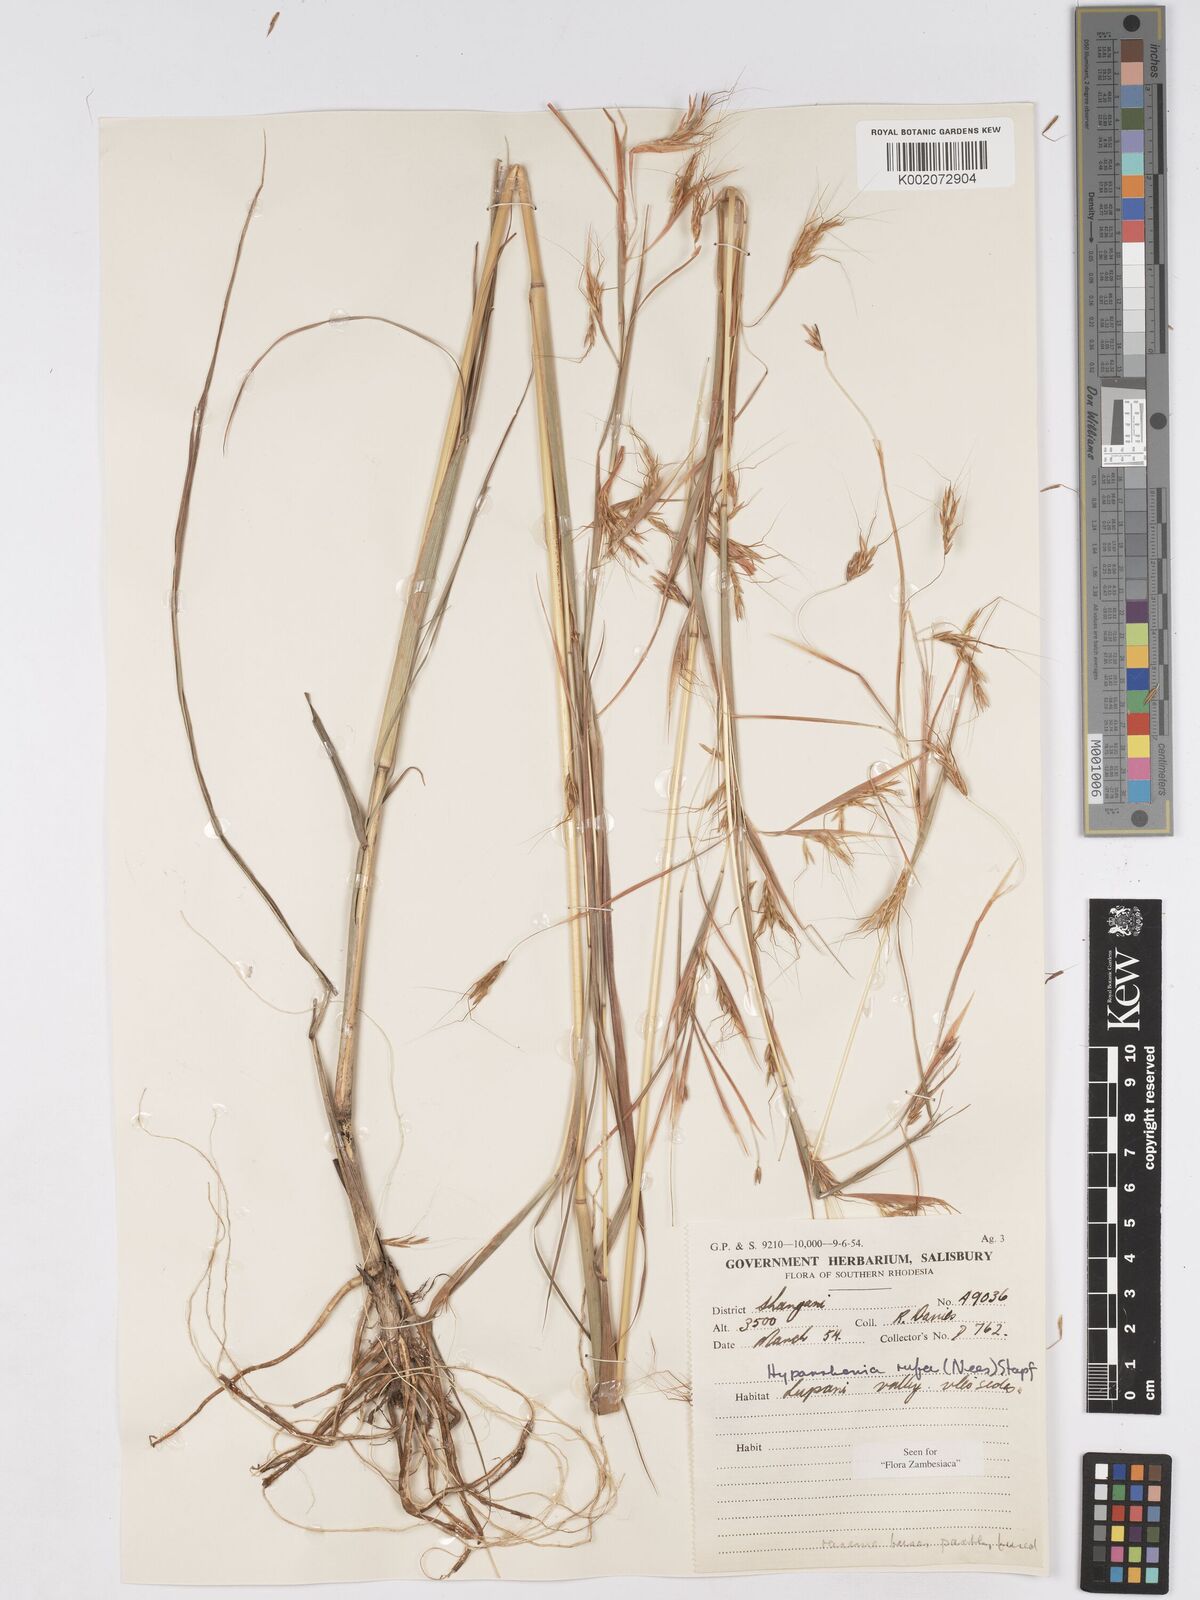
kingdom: Plantae
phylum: Tracheophyta
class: Liliopsida
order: Poales
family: Poaceae
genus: Hyparrhenia
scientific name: Hyparrhenia rufa
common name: Jaraguagrass
